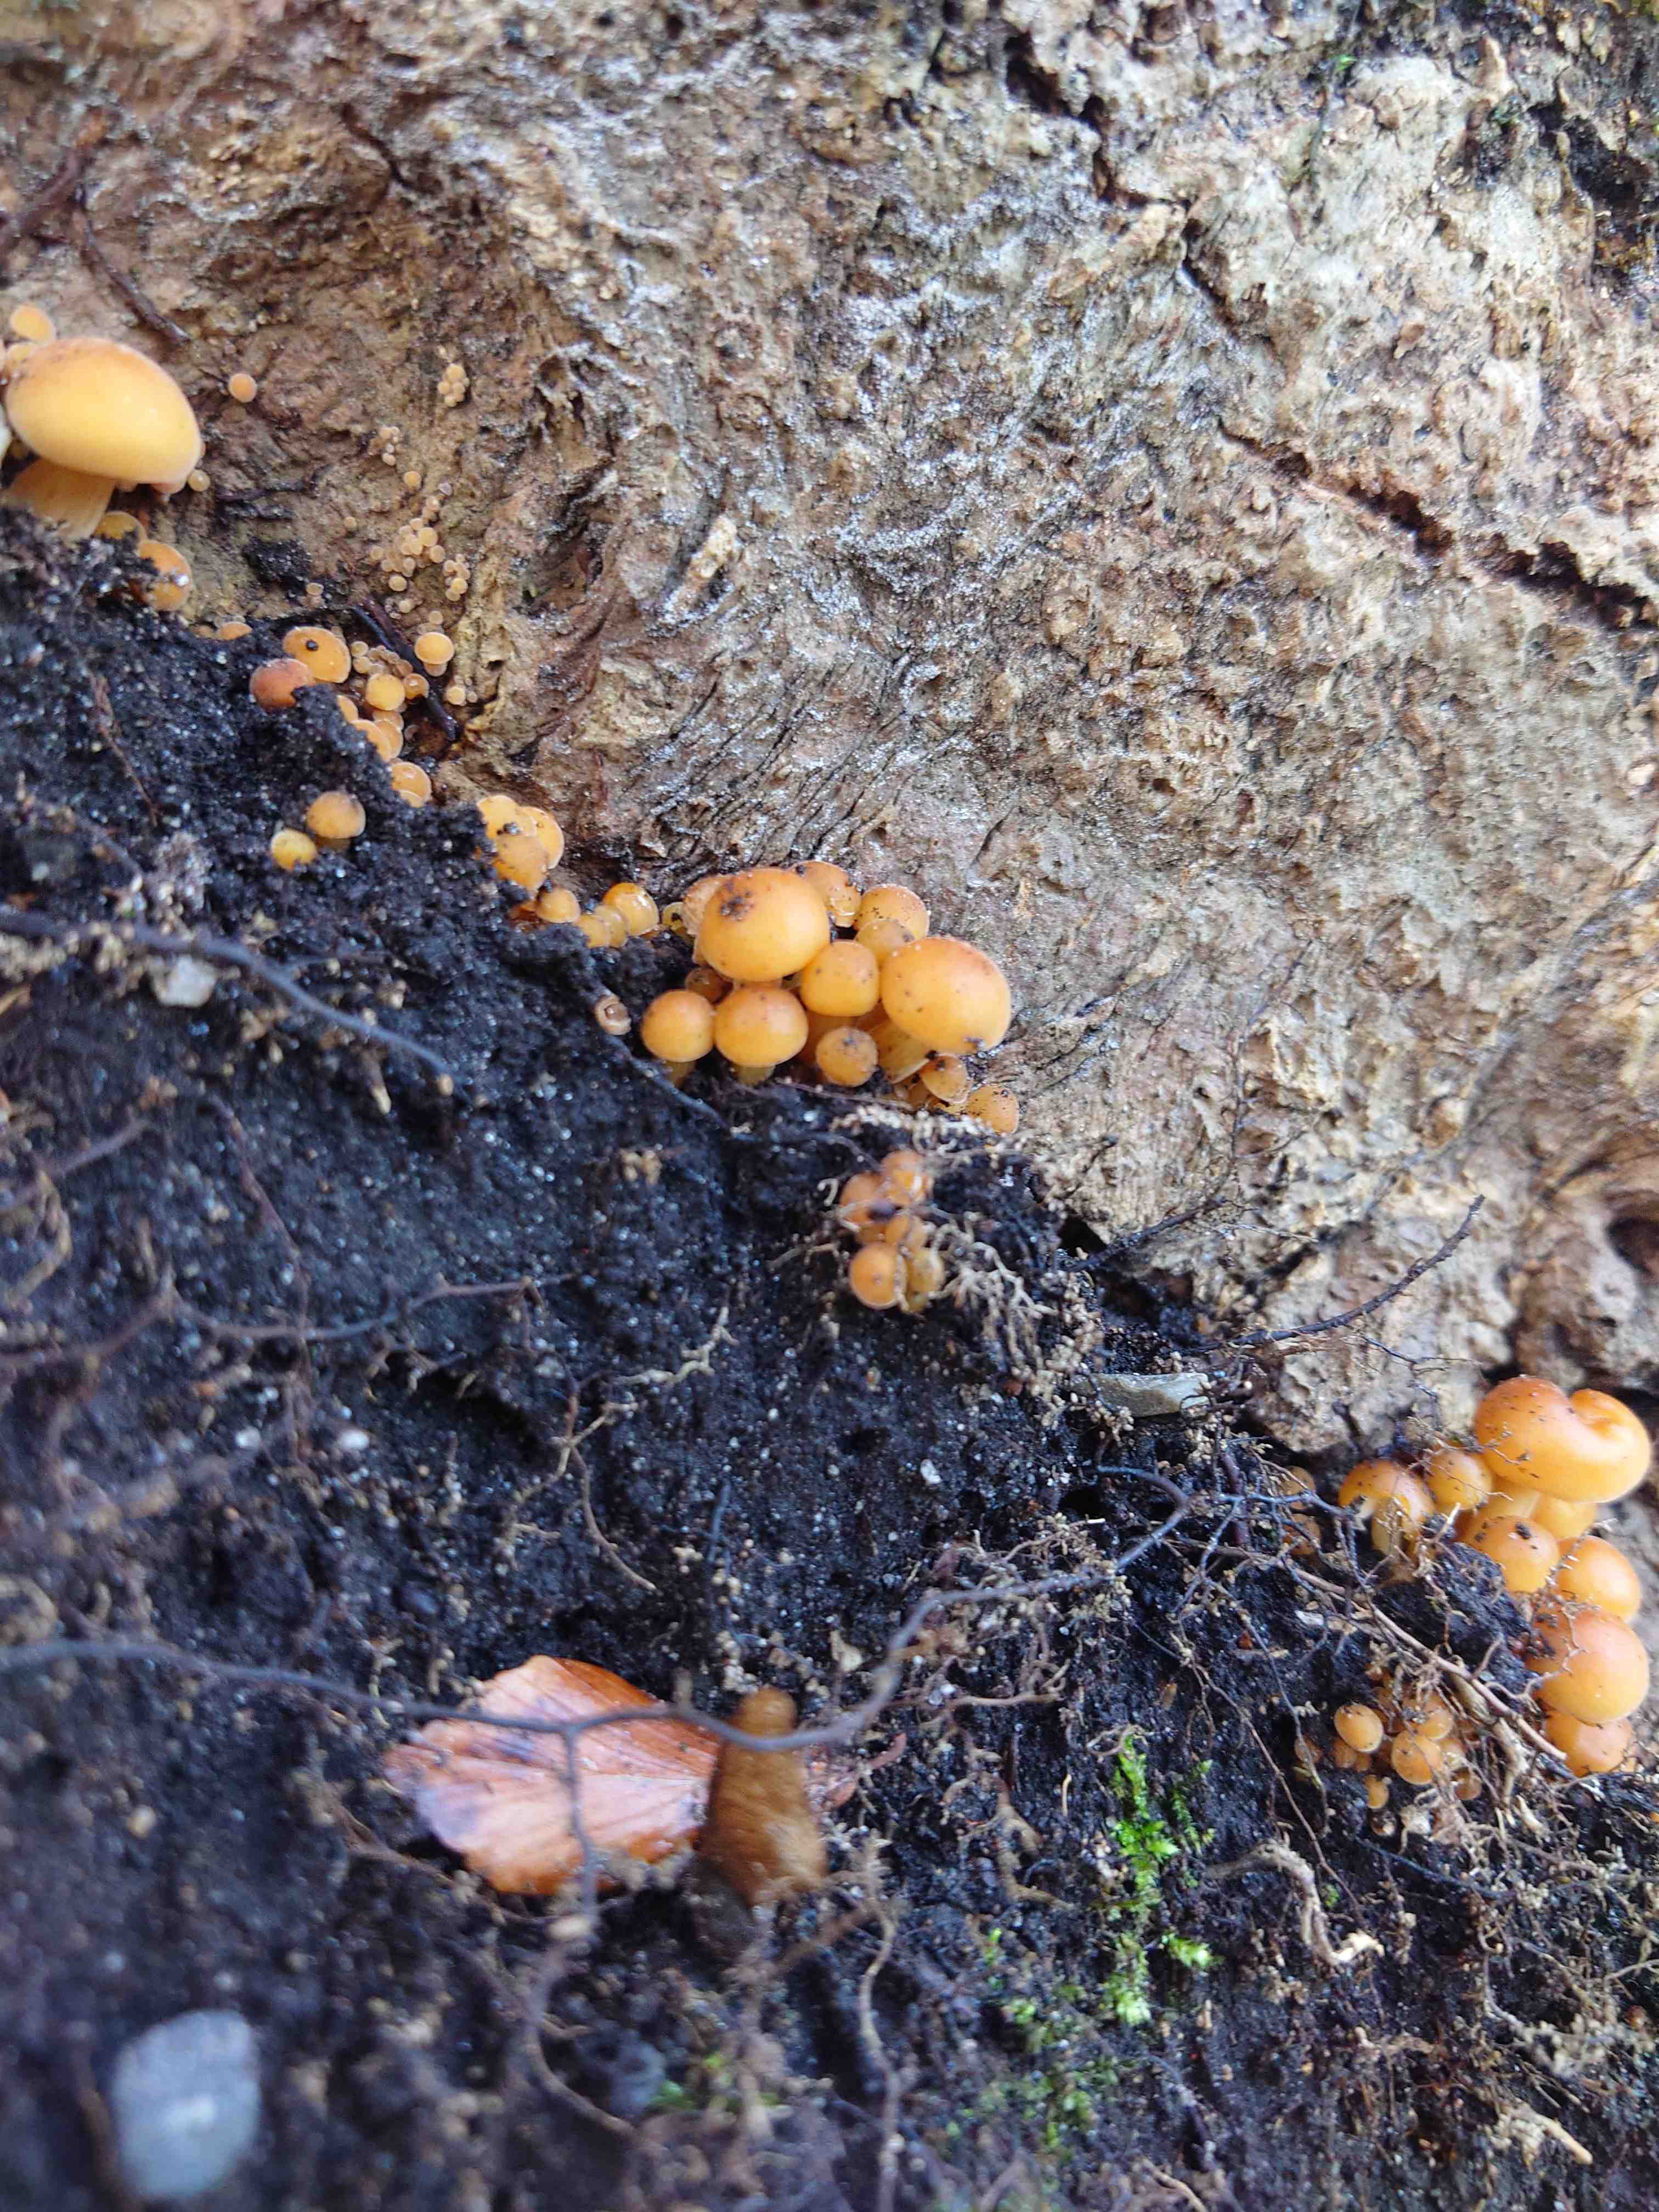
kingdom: Fungi
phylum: Basidiomycota
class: Agaricomycetes
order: Agaricales
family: Physalacriaceae
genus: Flammulina
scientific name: Flammulina velutipes
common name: gul fløjlsfod
